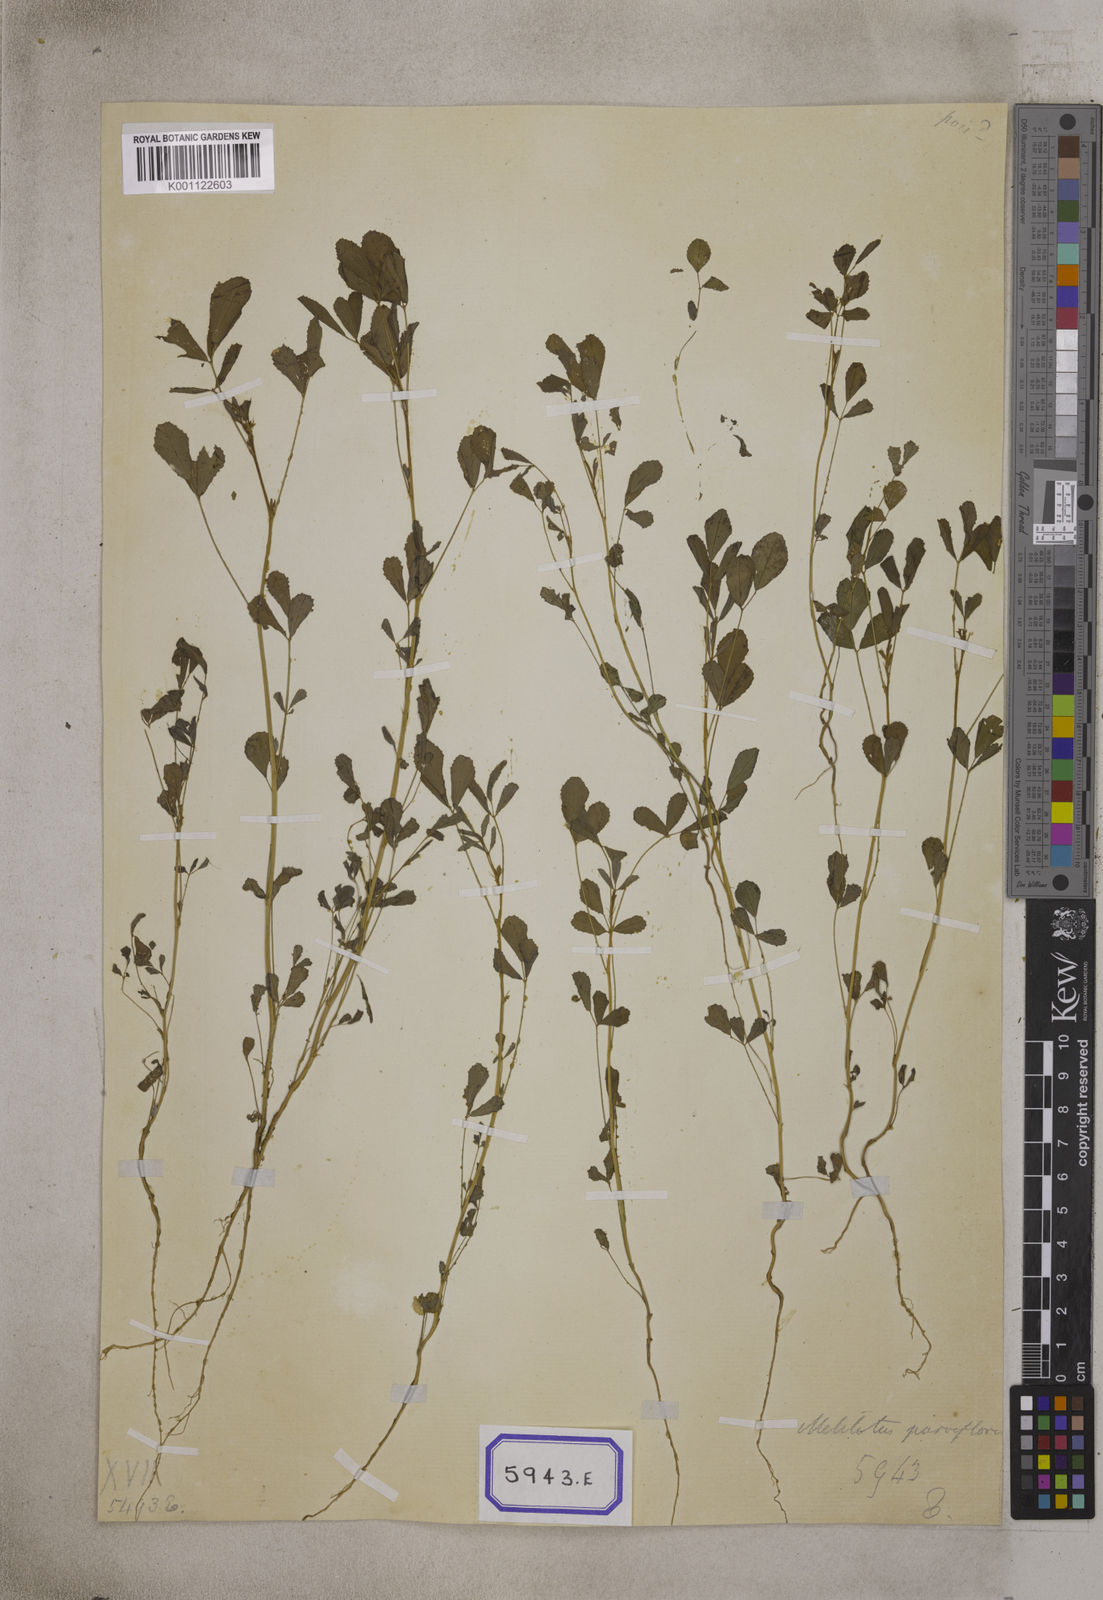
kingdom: Plantae
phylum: Tracheophyta
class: Magnoliopsida
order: Fabales
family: Fabaceae
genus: Melilotus
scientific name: Melilotus indicus
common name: Small melilot
